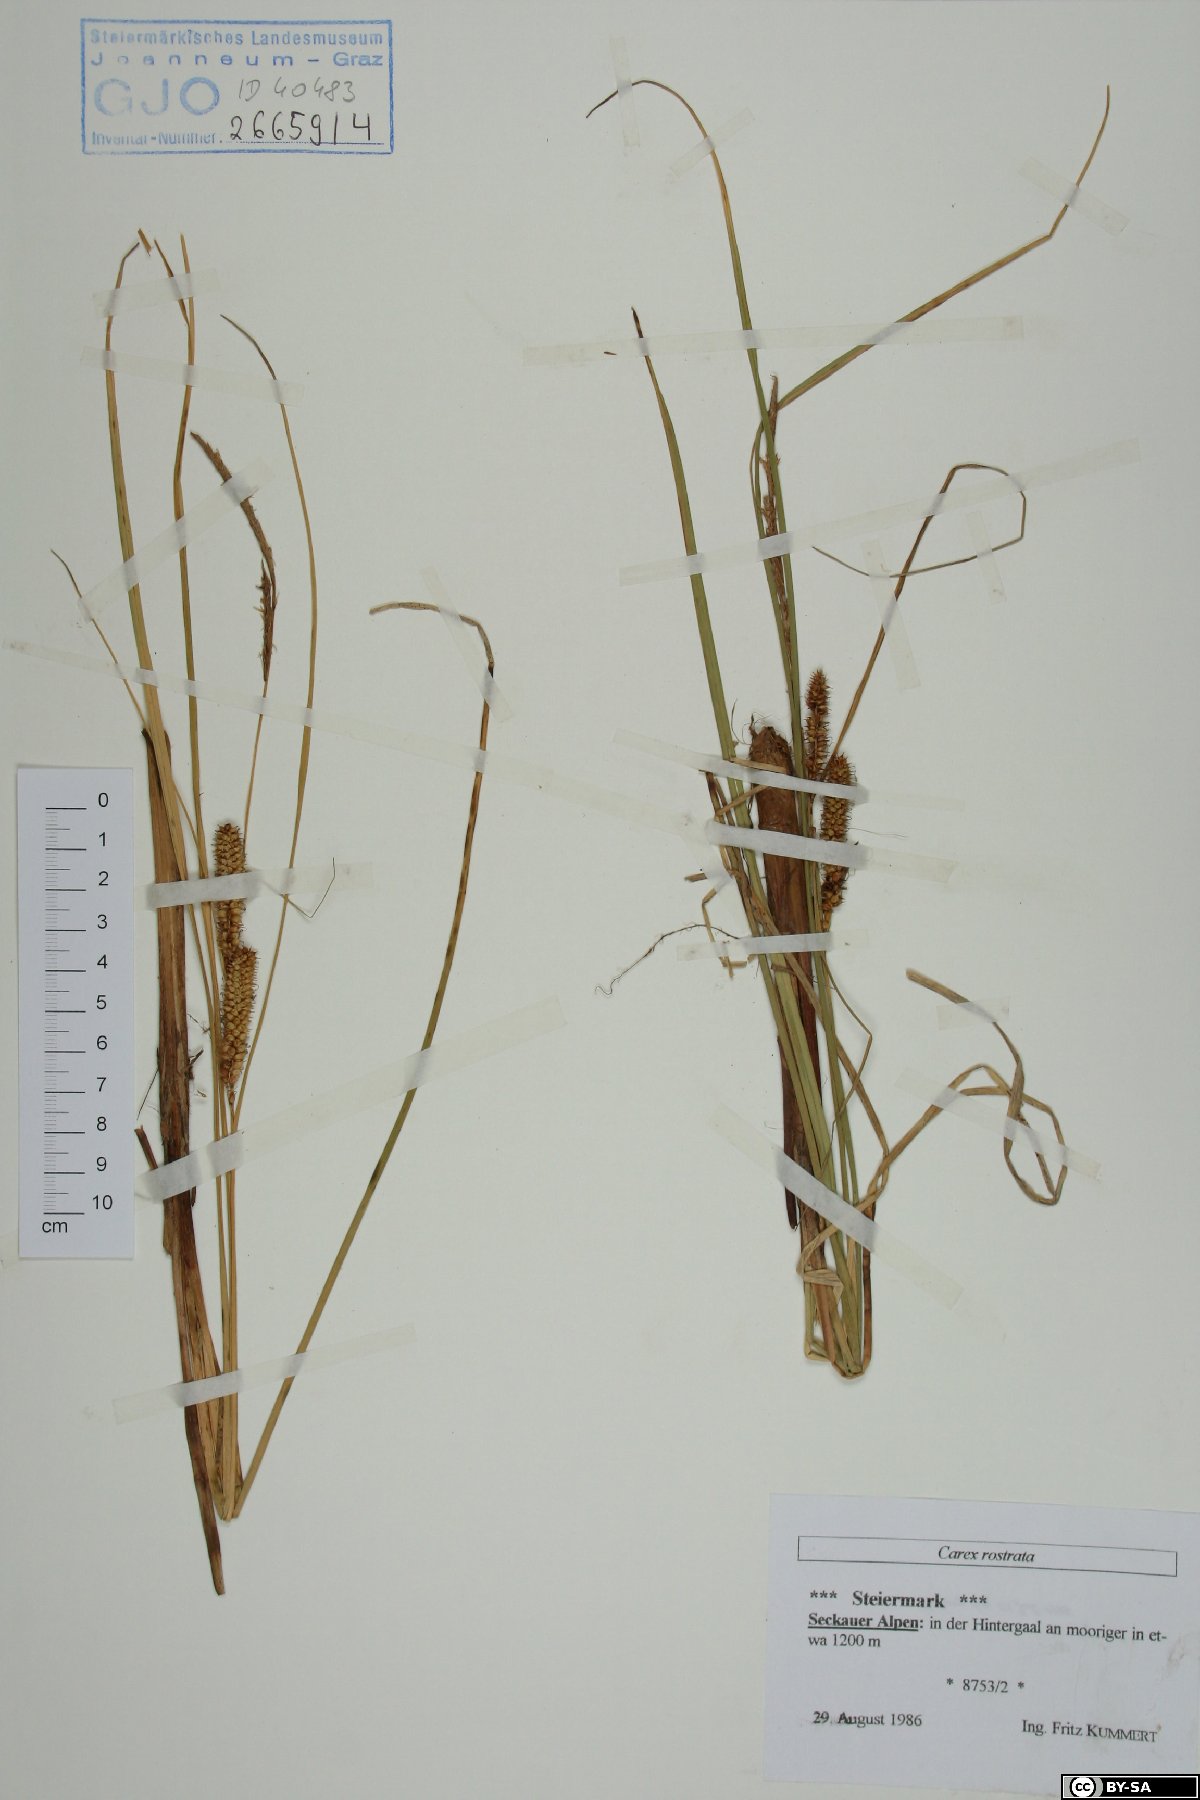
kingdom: Plantae
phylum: Tracheophyta
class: Liliopsida
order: Poales
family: Cyperaceae
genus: Carex
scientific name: Carex rostrata
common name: Bottle sedge
